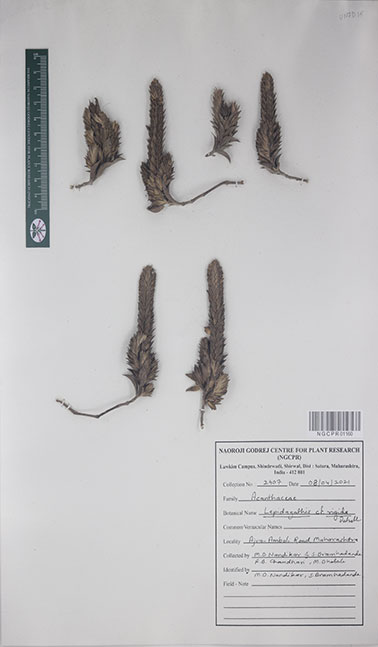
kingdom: Plantae
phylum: Tracheophyta
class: Magnoliopsida
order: Lamiales
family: Acanthaceae
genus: Lepidagathis
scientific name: Lepidagathis rigida
